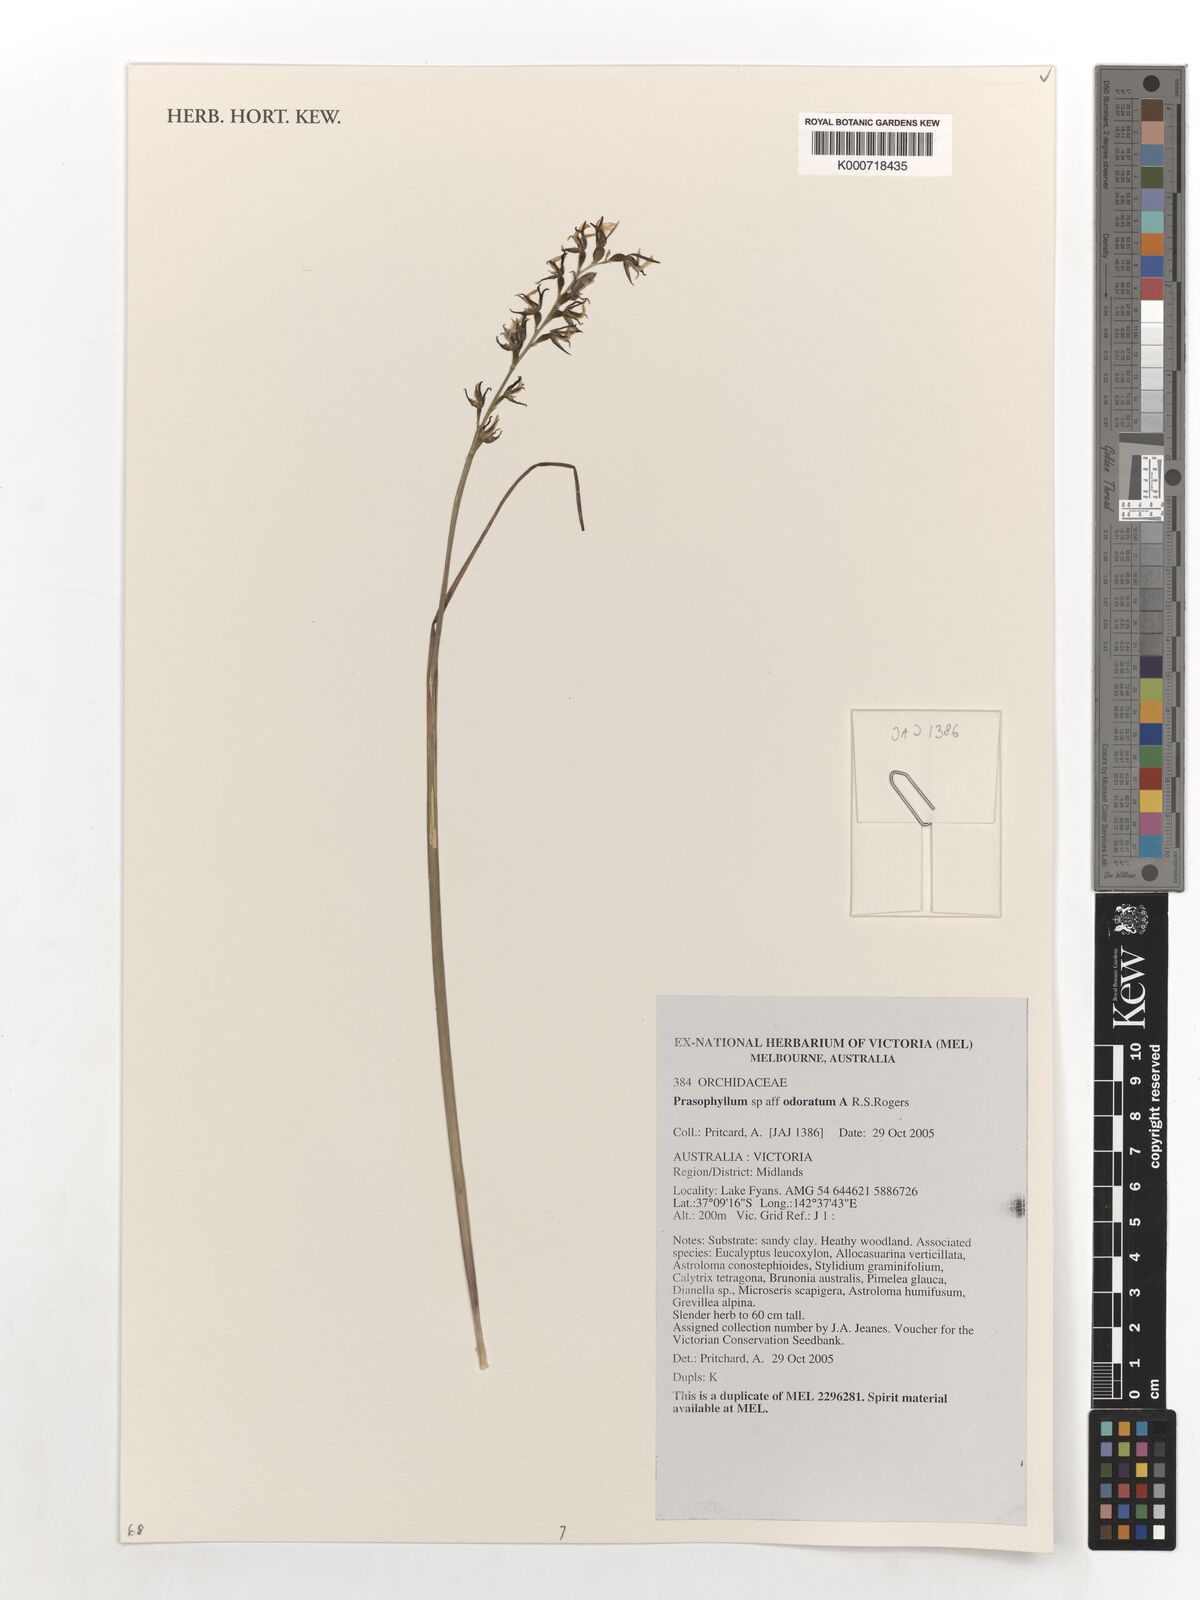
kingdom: Plantae
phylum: Tracheophyta
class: Liliopsida
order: Asparagales
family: Orchidaceae
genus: Prasophyllum
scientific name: Prasophyllum odoratum
